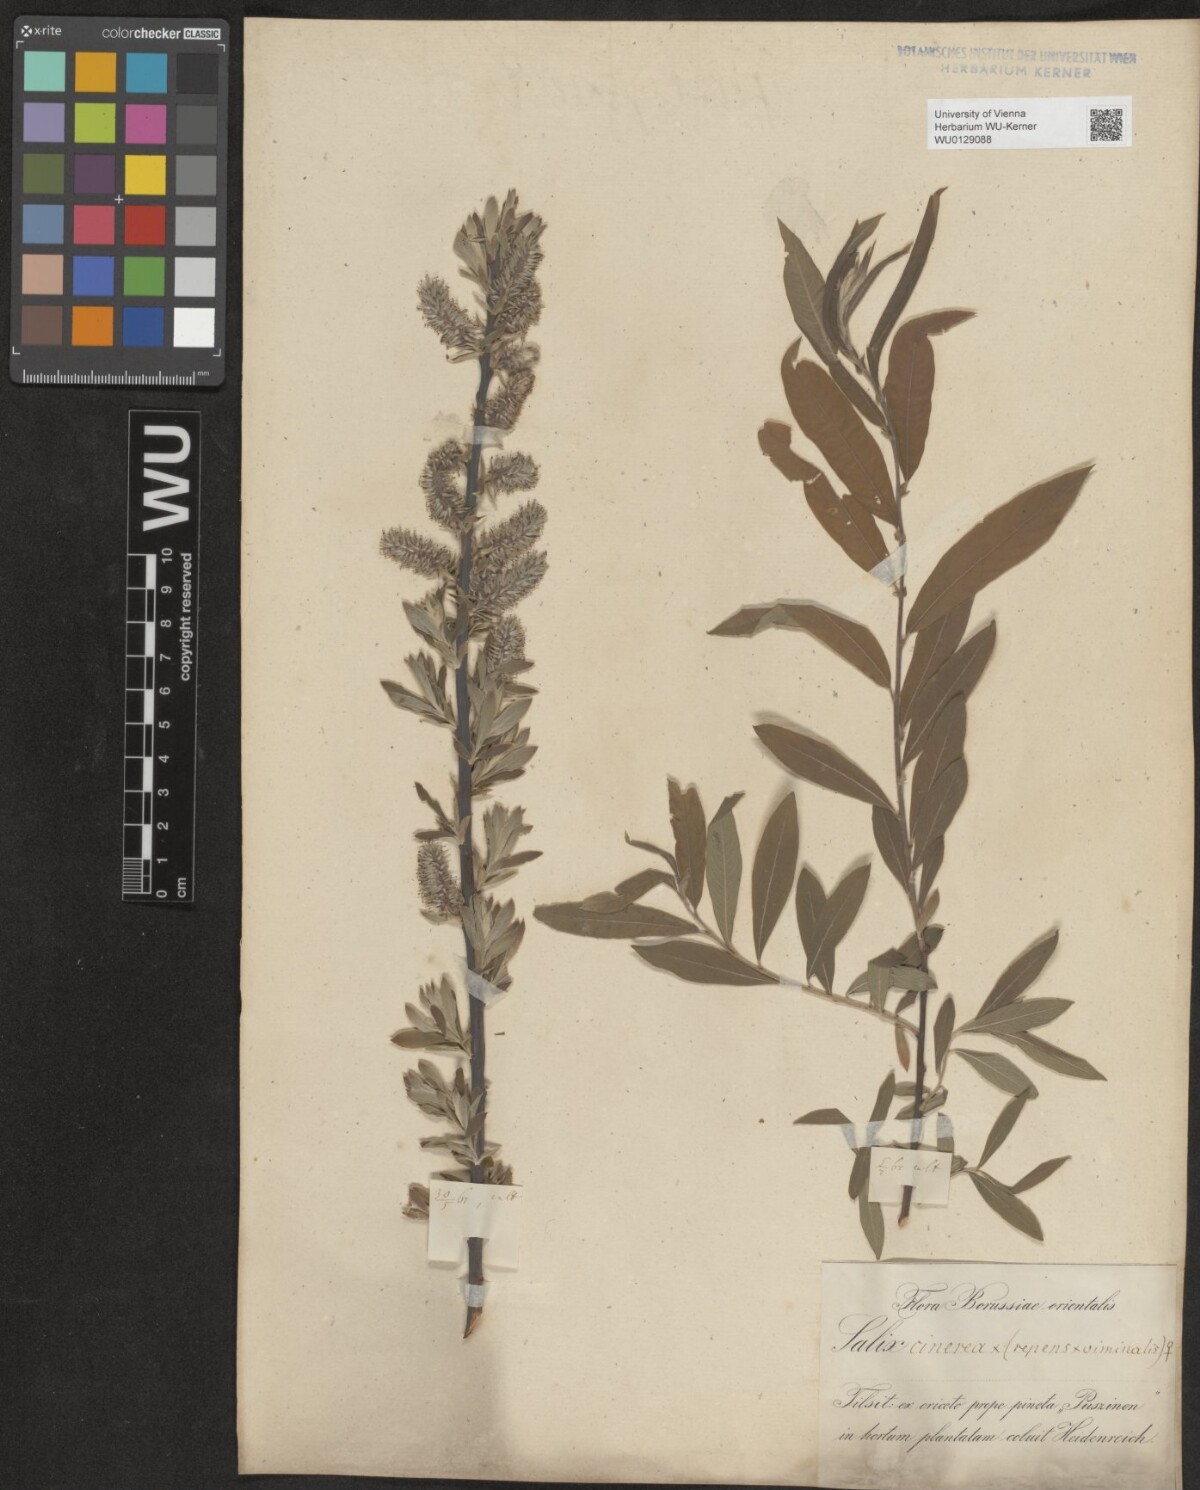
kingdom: Plantae
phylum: Tracheophyta
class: Magnoliopsida
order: Malpighiales
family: Salicaceae
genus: Salix
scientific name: Salix
